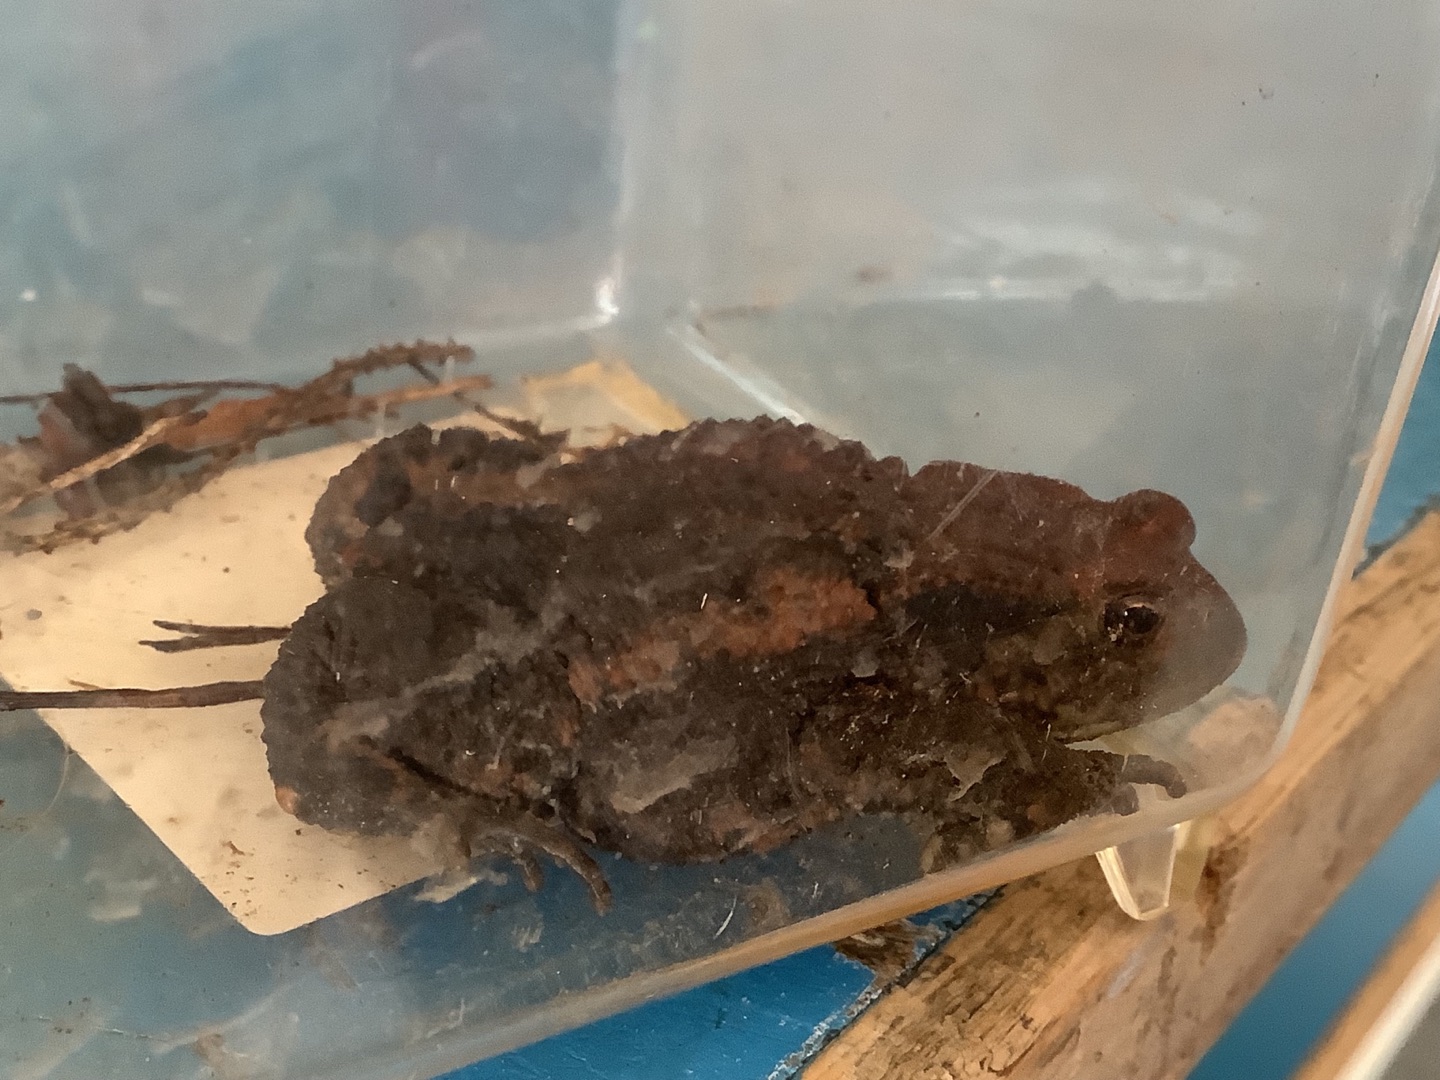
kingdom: Animalia
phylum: Chordata
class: Amphibia
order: Anura
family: Bufonidae
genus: Bufo
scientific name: Bufo bufo
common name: Skrubtudse
